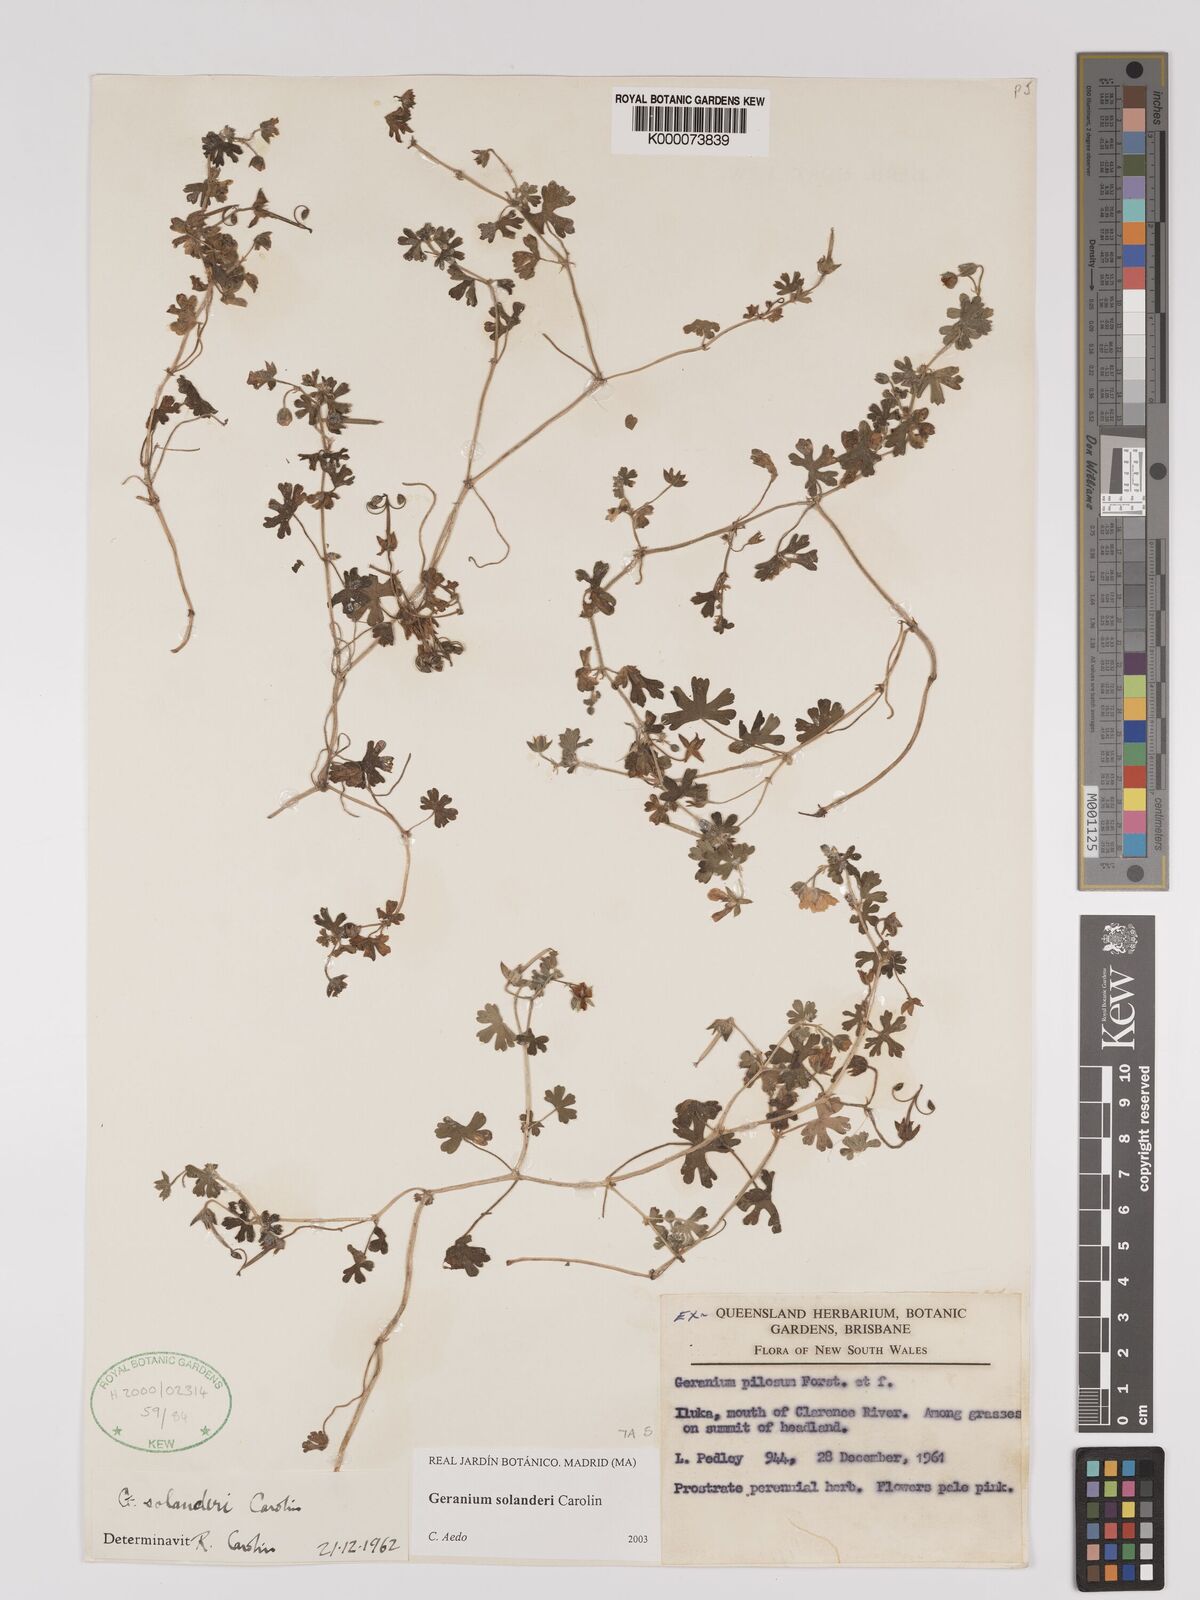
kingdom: Plantae
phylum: Tracheophyta
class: Magnoliopsida
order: Geraniales
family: Geraniaceae
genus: Geranium
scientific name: Geranium solanderi
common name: Solander's geranium
